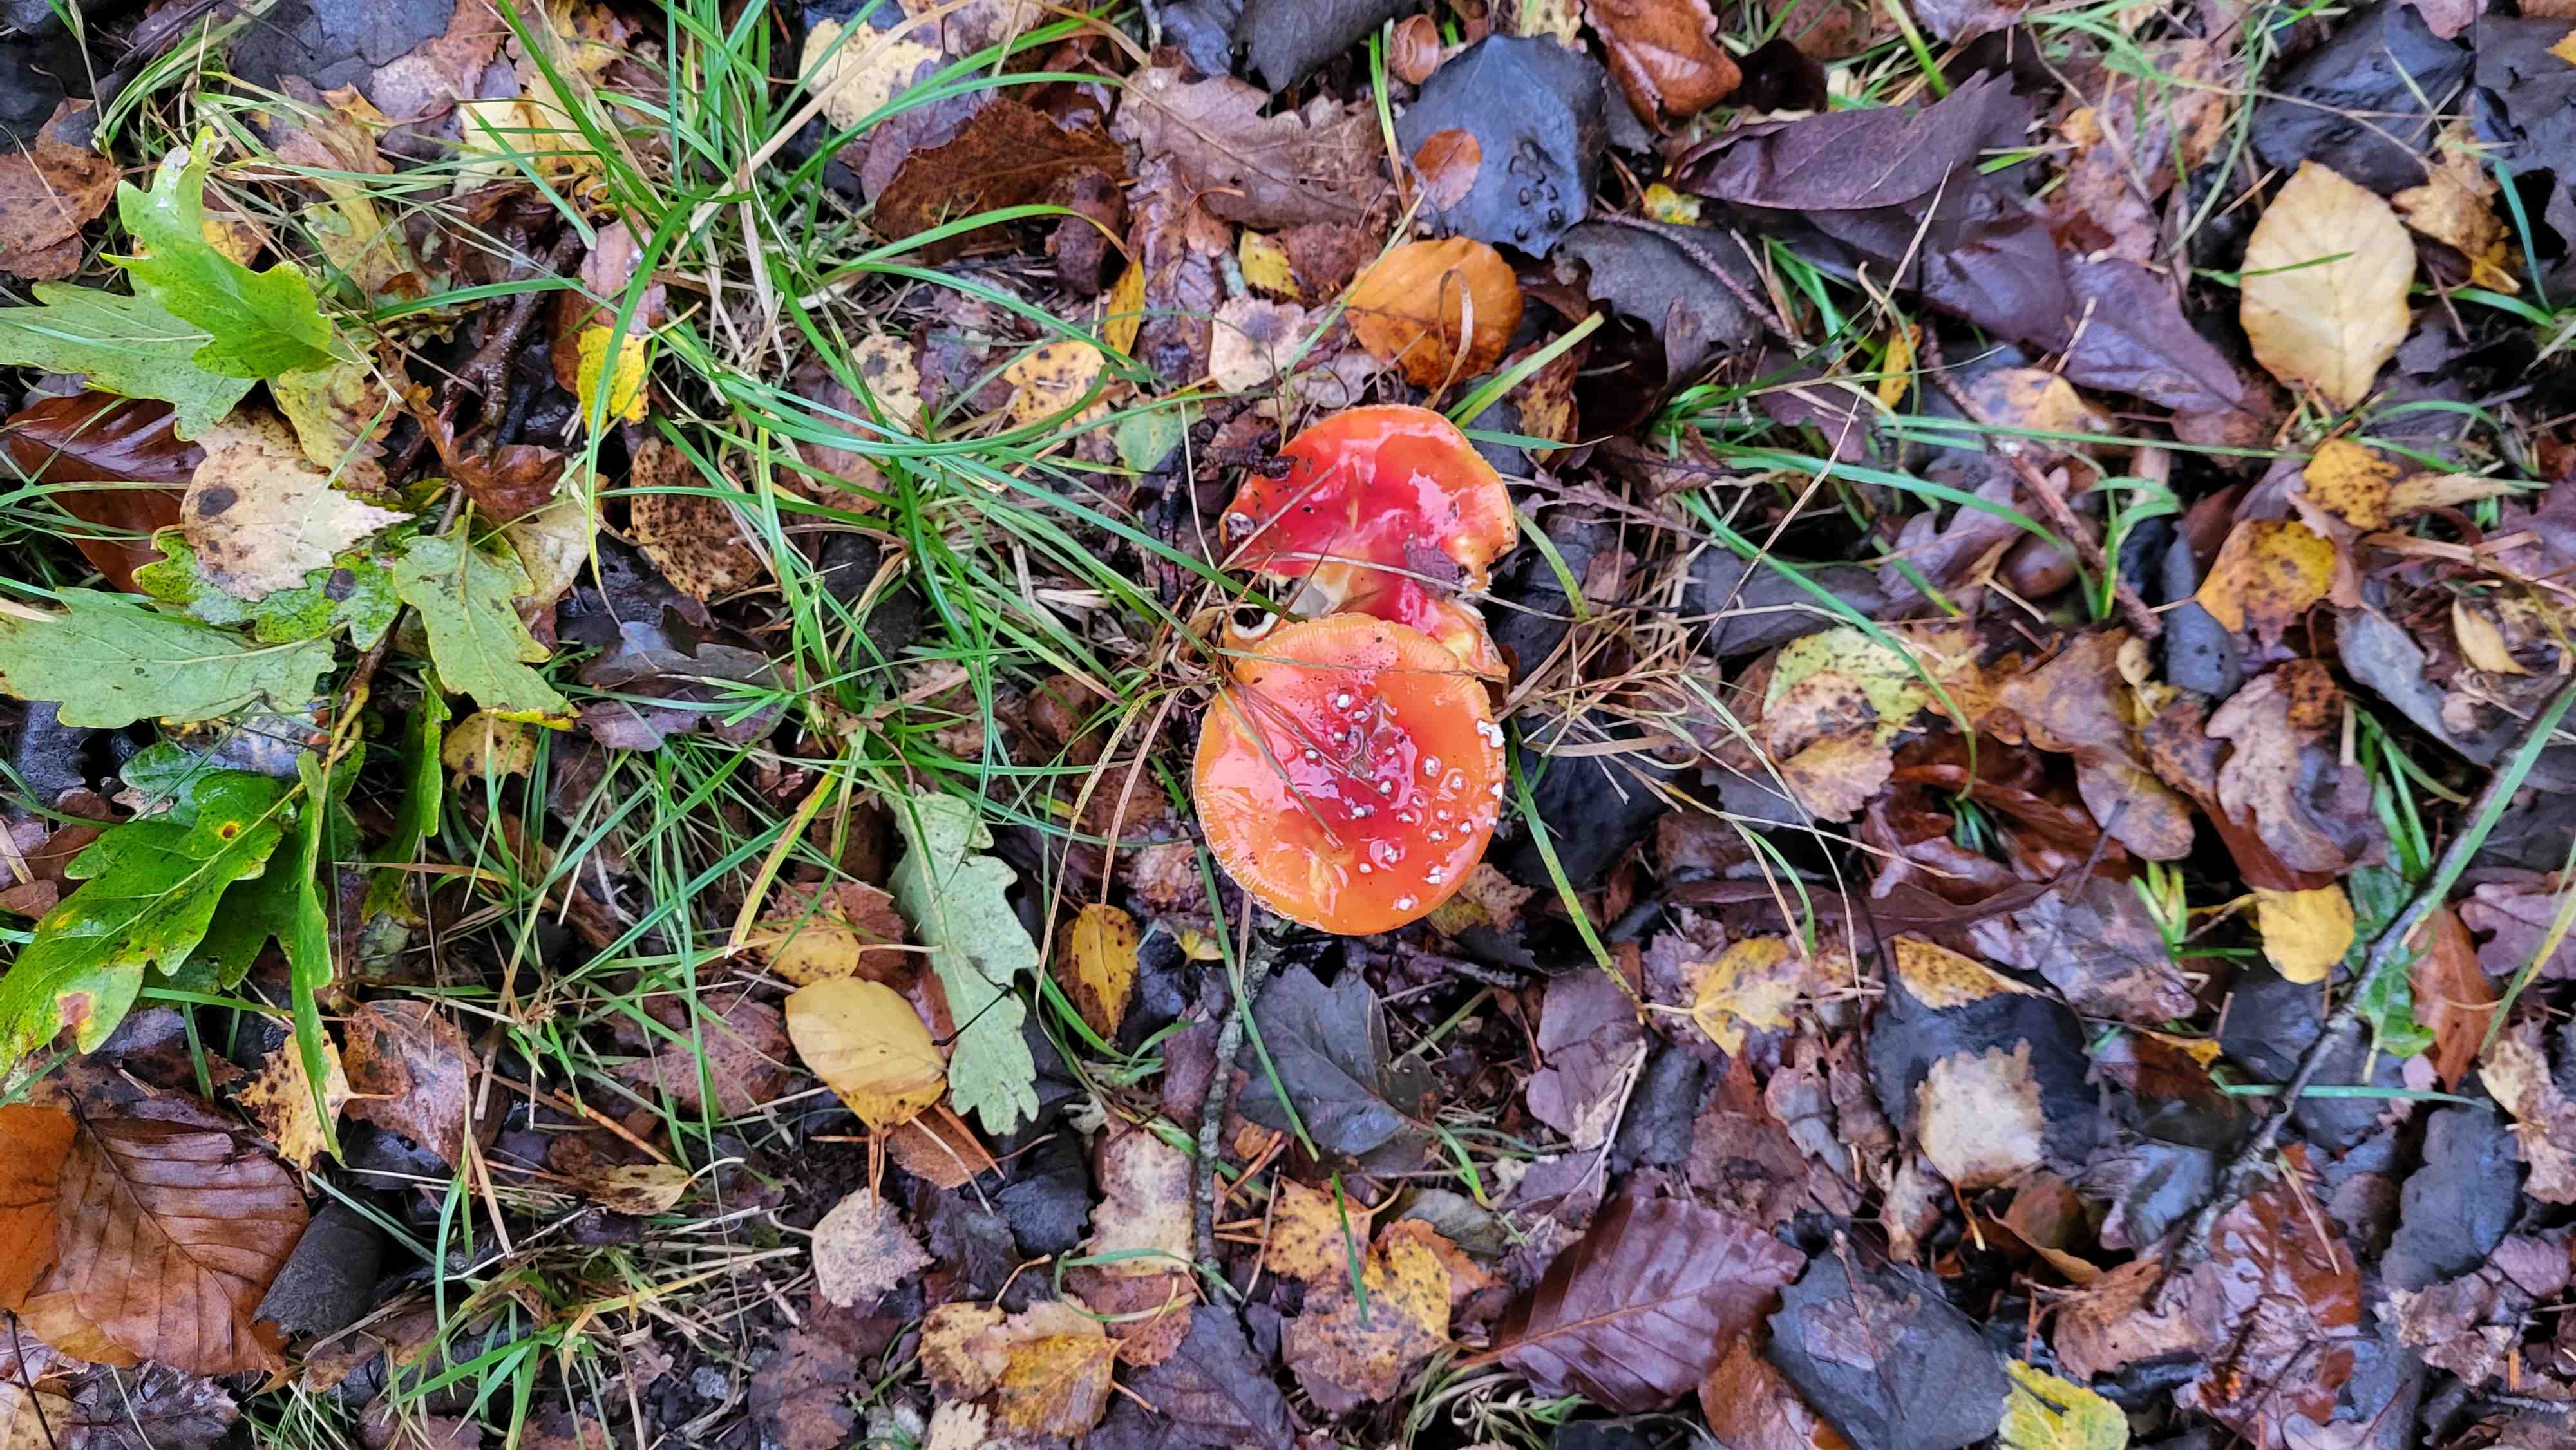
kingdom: Fungi
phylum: Basidiomycota
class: Agaricomycetes
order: Agaricales
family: Amanitaceae
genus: Amanita
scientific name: Amanita muscaria
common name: rød fluesvamp
